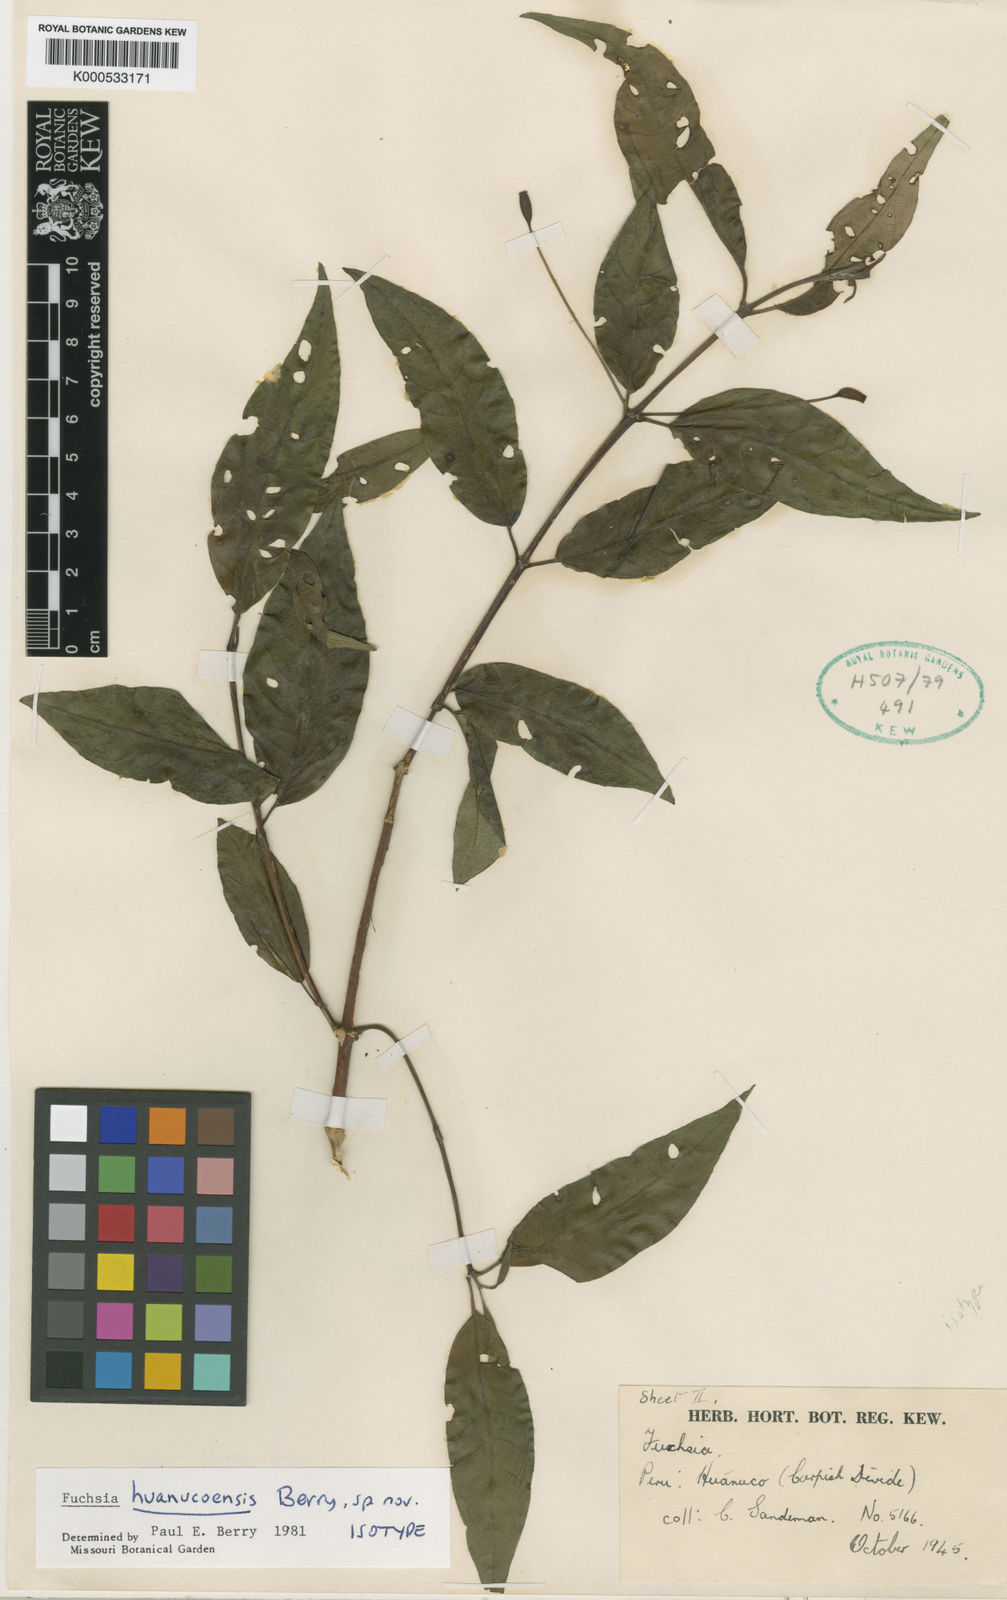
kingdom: Plantae
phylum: Tracheophyta
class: Magnoliopsida
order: Myrtales
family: Onagraceae
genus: Fuchsia
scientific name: Fuchsia huanucoensis
